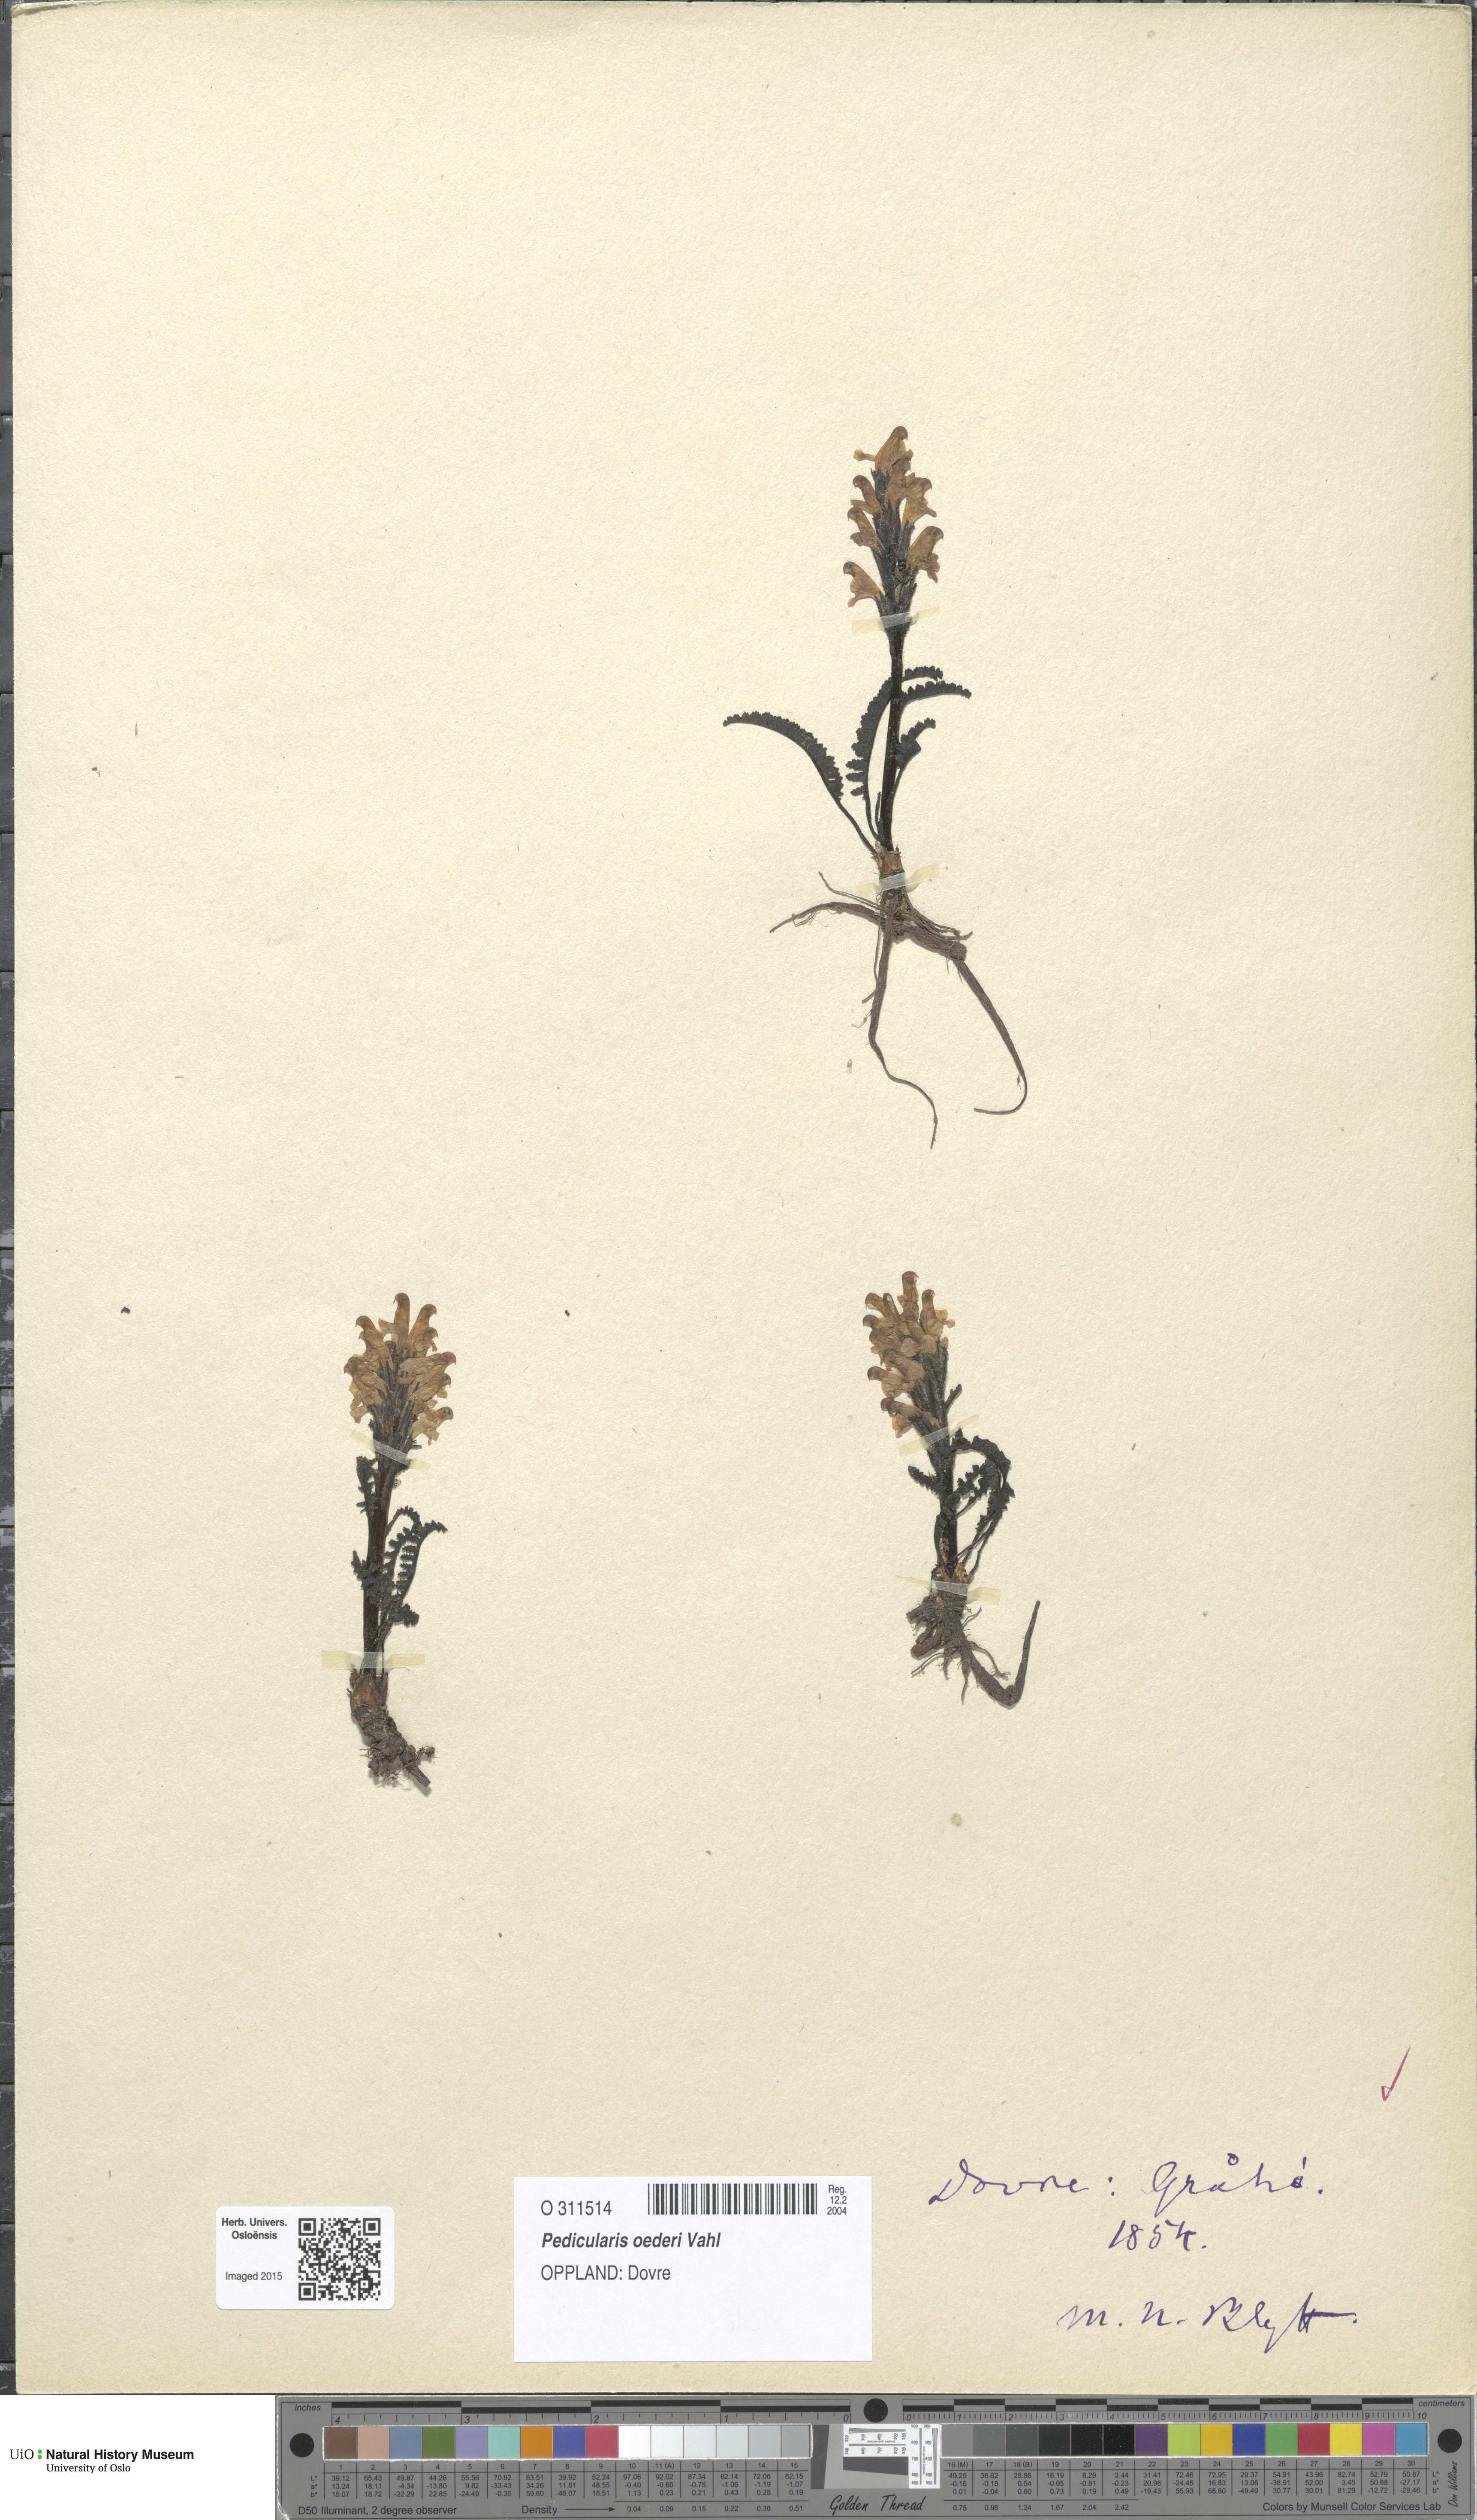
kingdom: Plantae
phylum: Tracheophyta
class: Magnoliopsida
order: Lamiales
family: Orobanchaceae
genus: Pedicularis
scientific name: Pedicularis oederi
